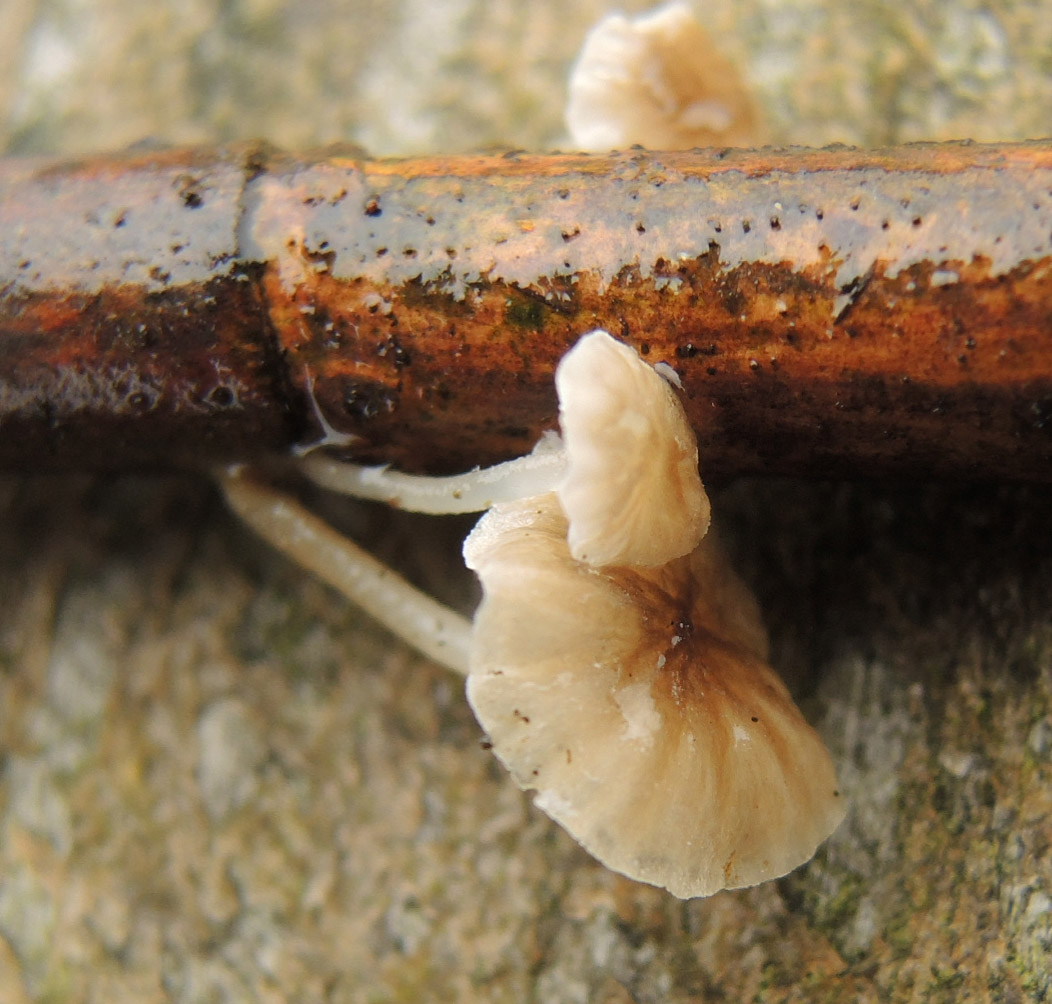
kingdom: Fungi
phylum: Basidiomycota
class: Agaricomycetes
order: Agaricales
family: Porotheleaceae
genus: Phloeomana
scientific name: Phloeomana speirea
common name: kvist-huesvamp
